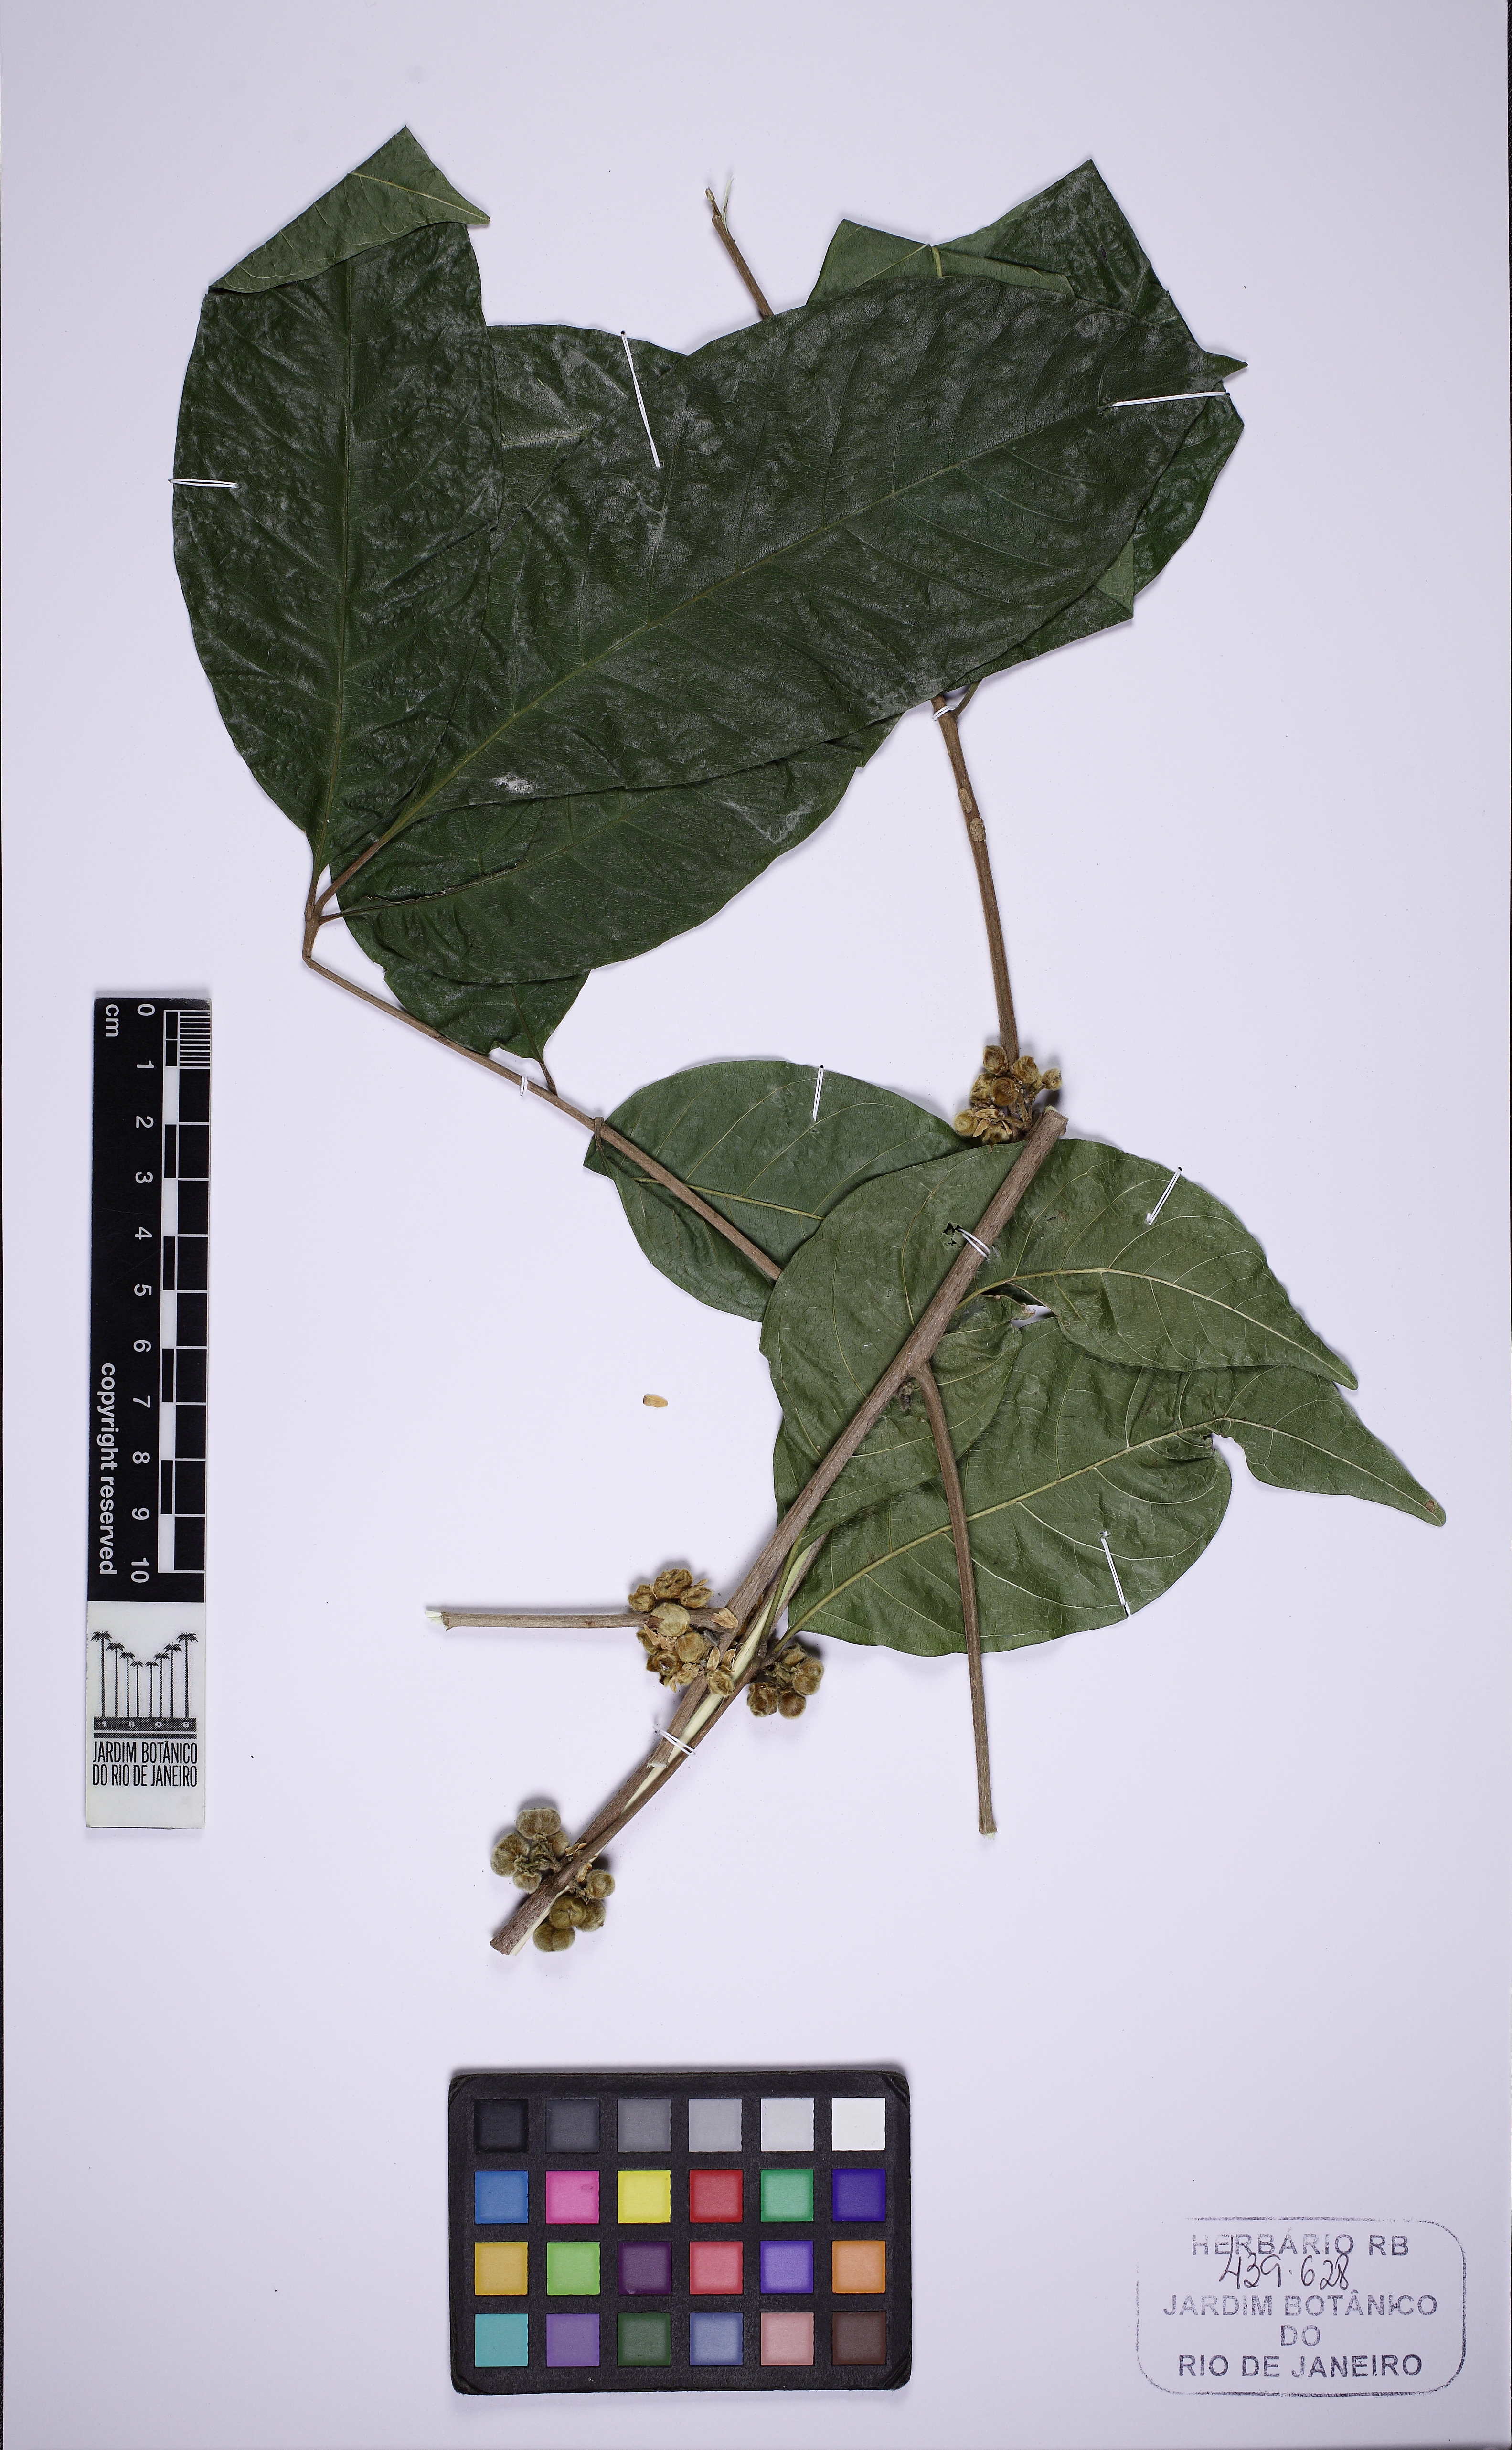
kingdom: Plantae
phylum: Tracheophyta
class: Magnoliopsida
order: Fabales
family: Fabaceae
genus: Senna
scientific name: Senna
